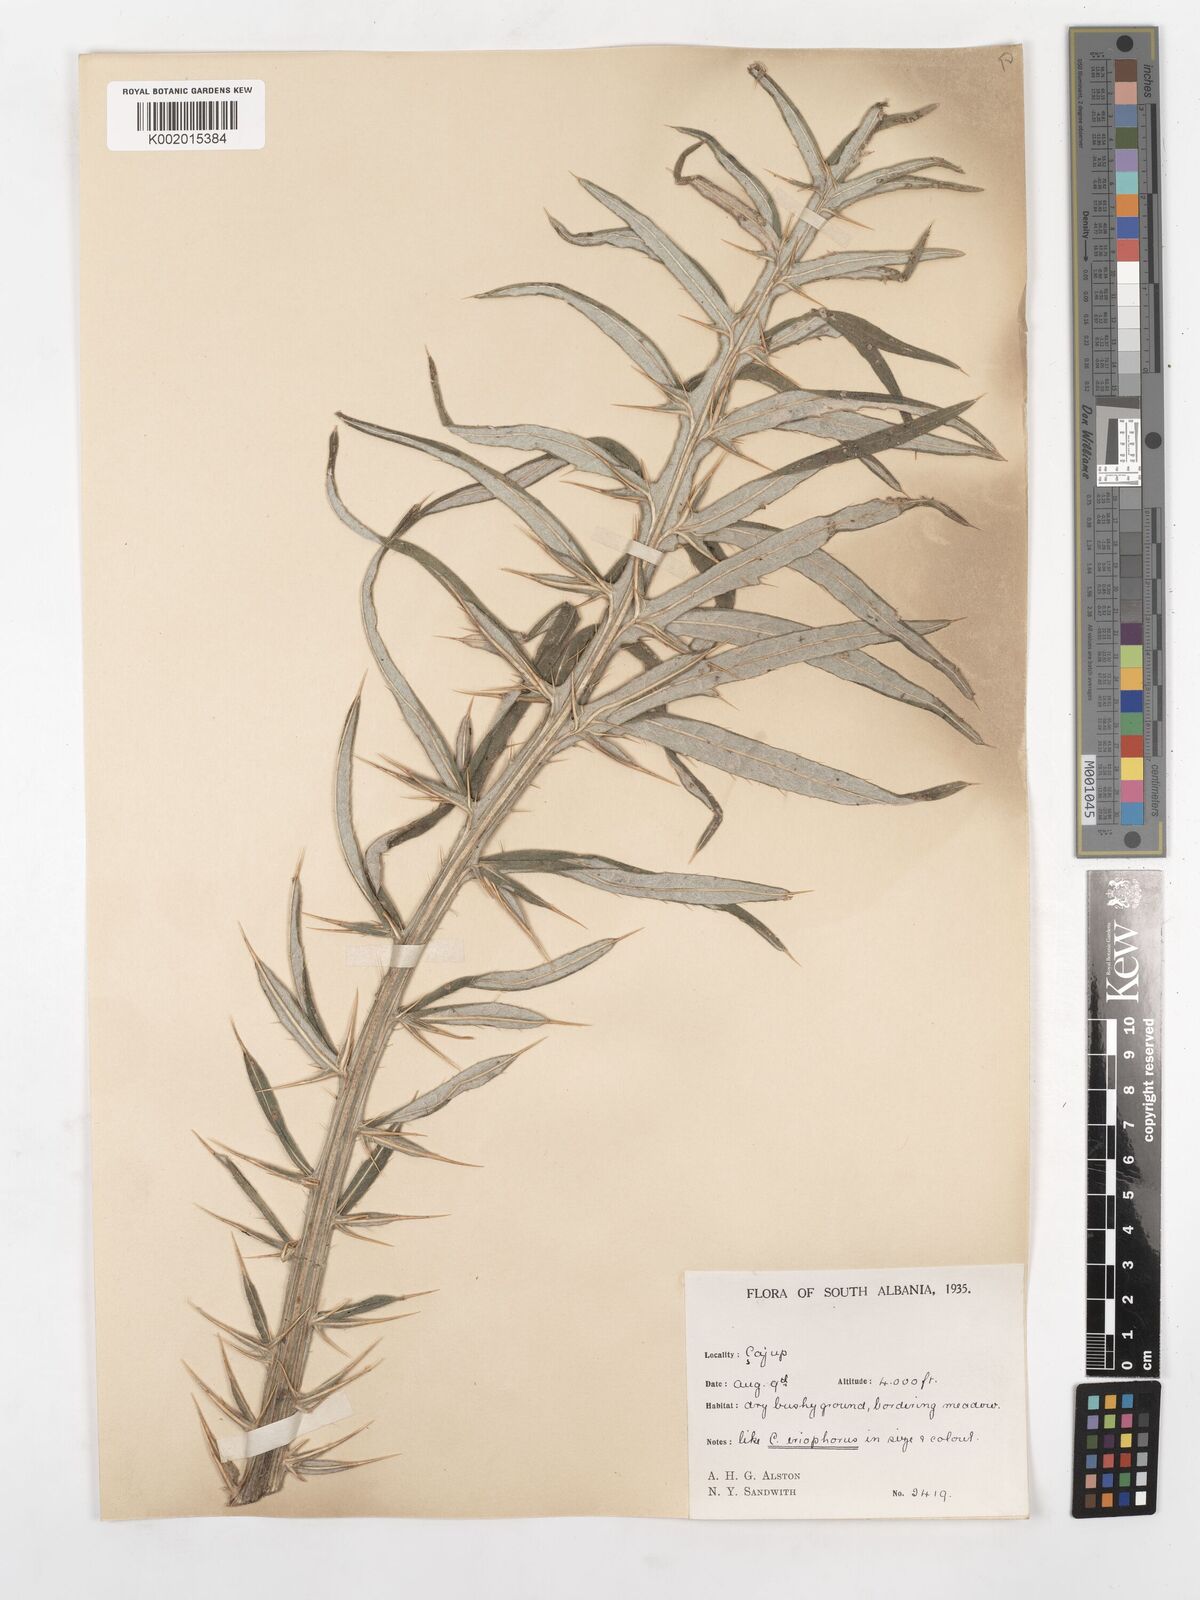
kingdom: Plantae
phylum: Tracheophyta
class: Magnoliopsida
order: Asterales
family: Asteraceae
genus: Lophiolepis
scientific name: Lophiolepis boujartii
